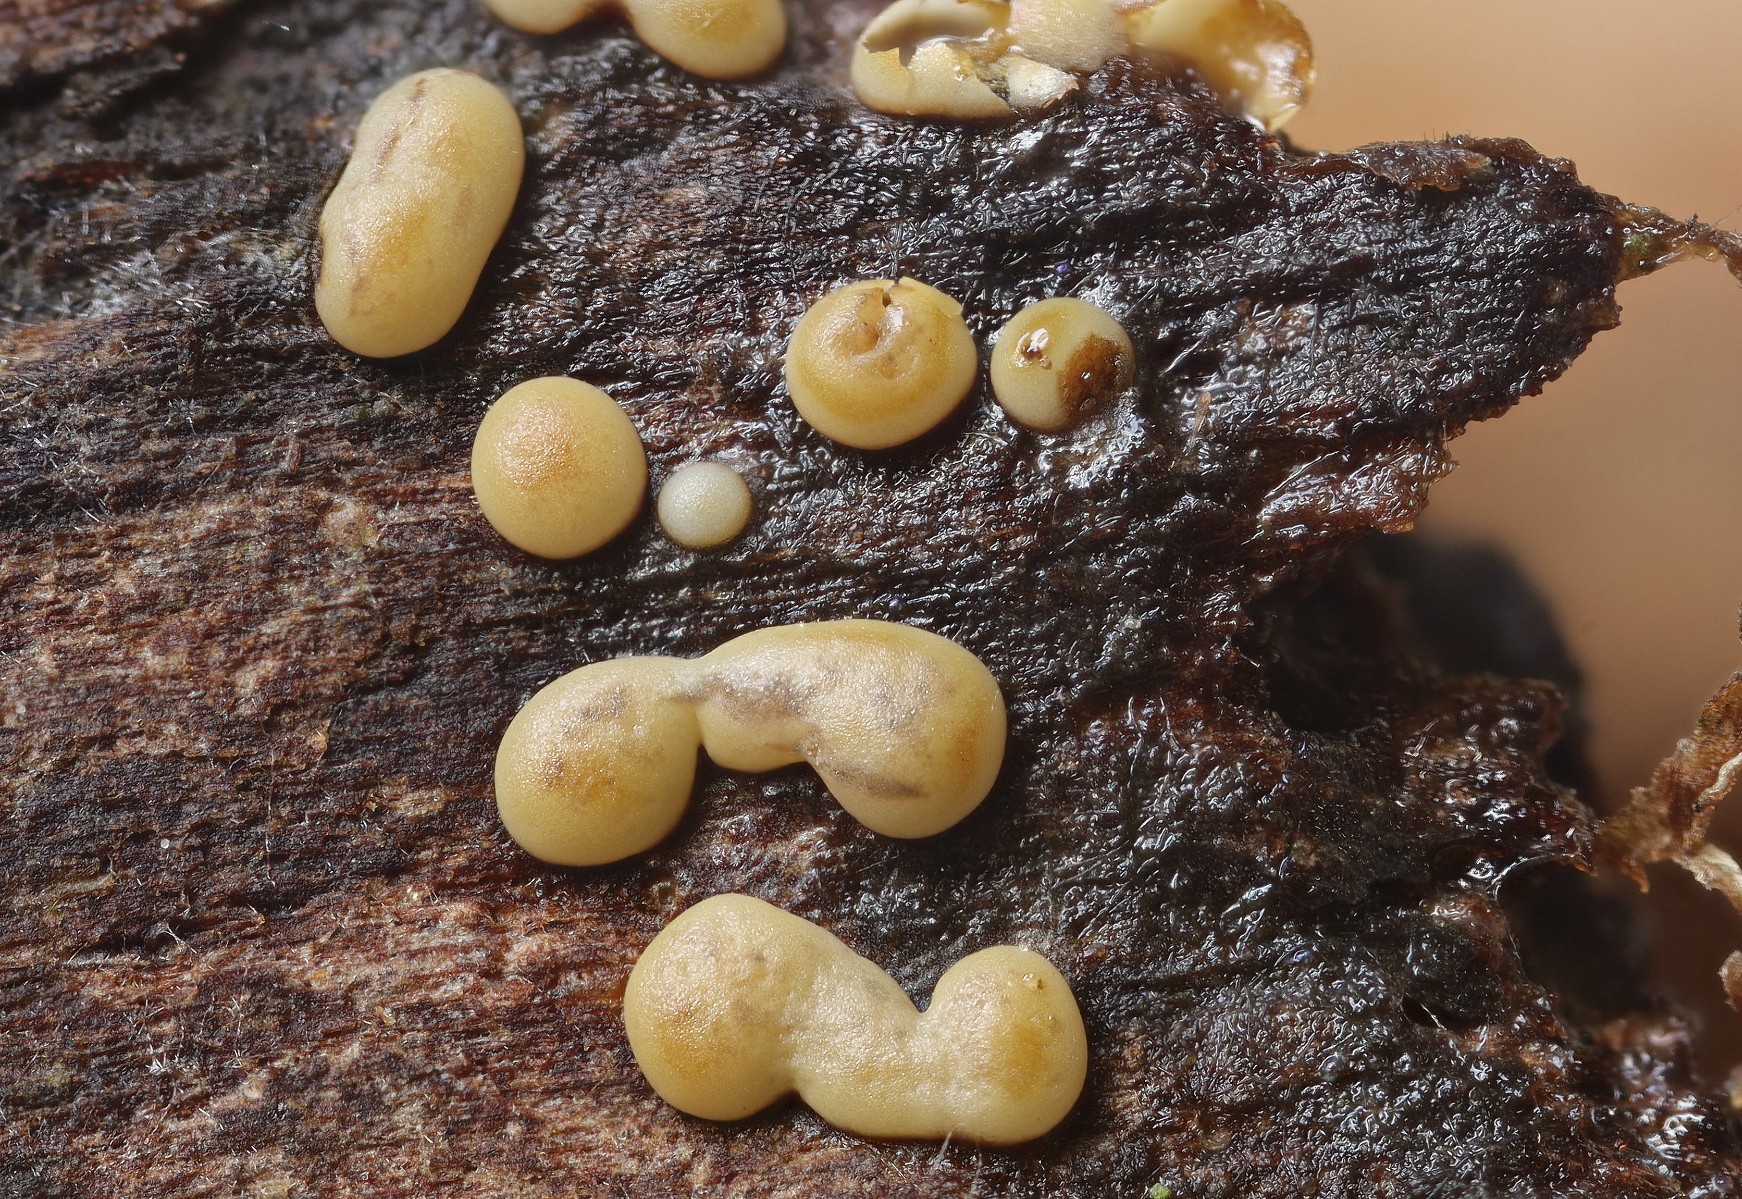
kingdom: Protozoa
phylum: Mycetozoa
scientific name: Mycetozoa
